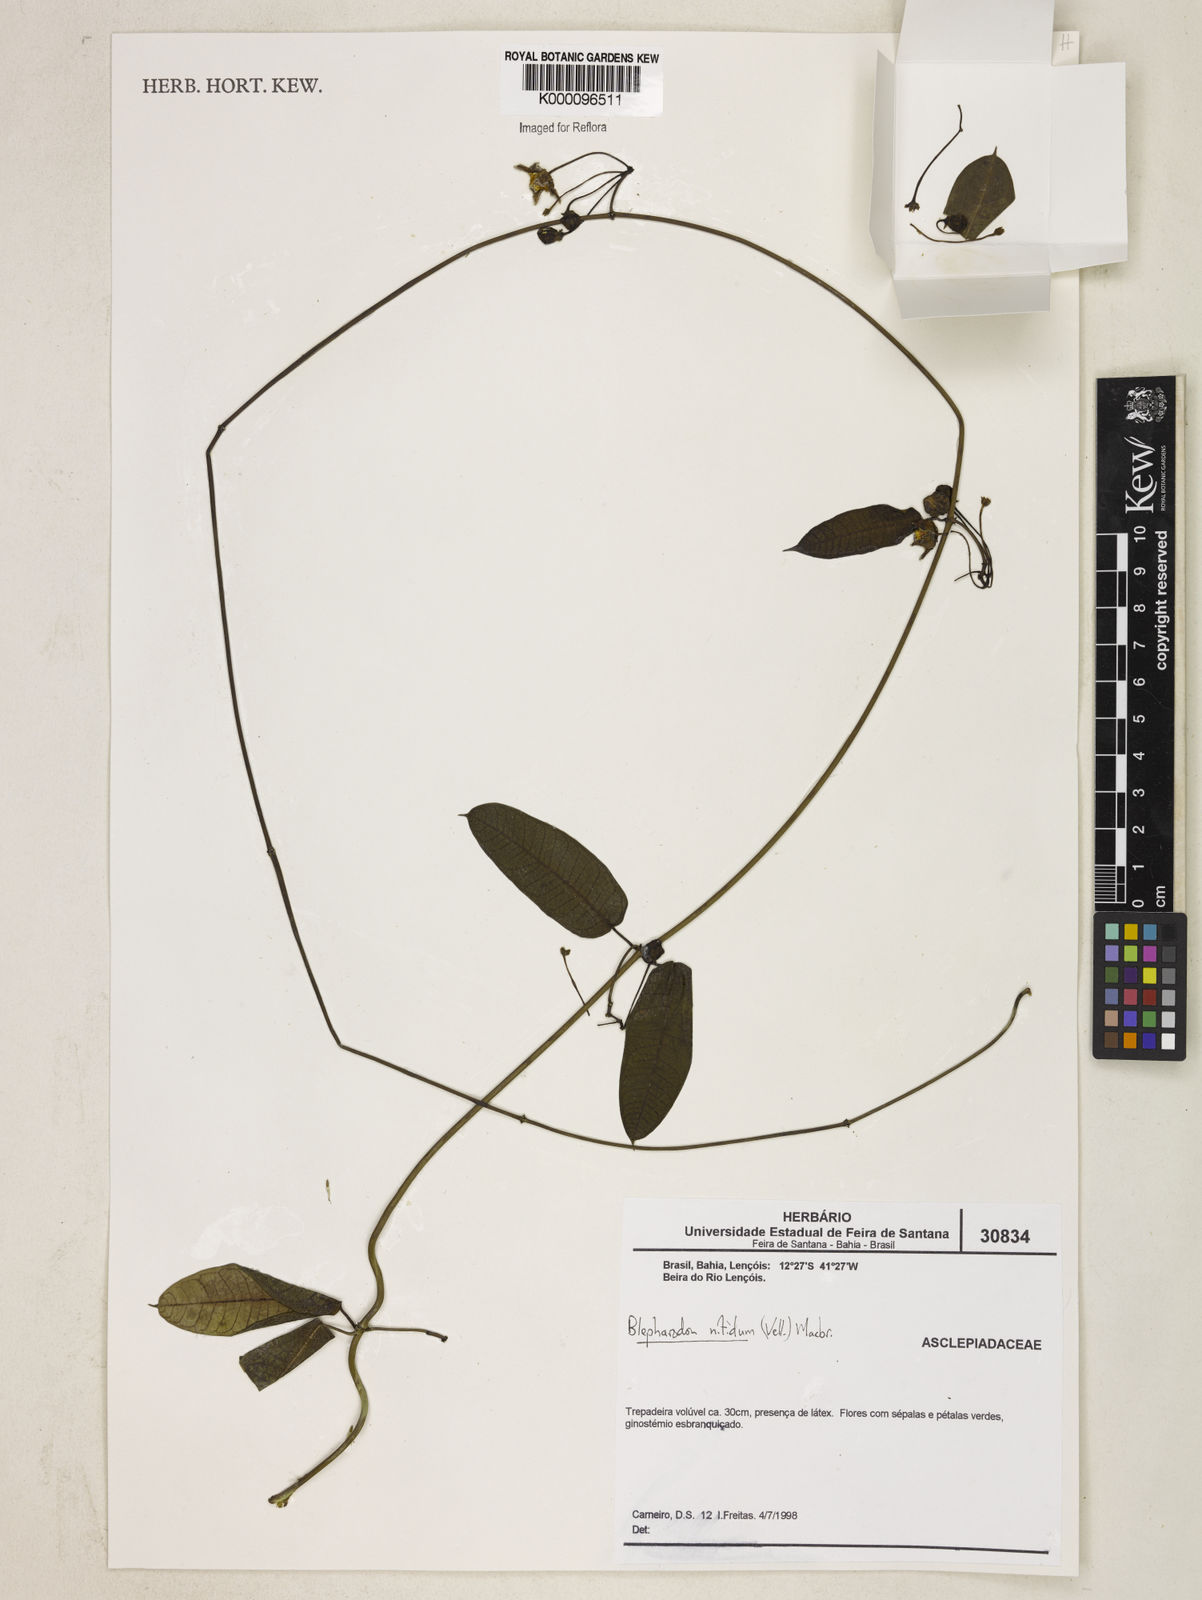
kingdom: Plantae
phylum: Tracheophyta
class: Magnoliopsida
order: Gentianales
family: Apocynaceae
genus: Blepharodon
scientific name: Blepharodon pictum
